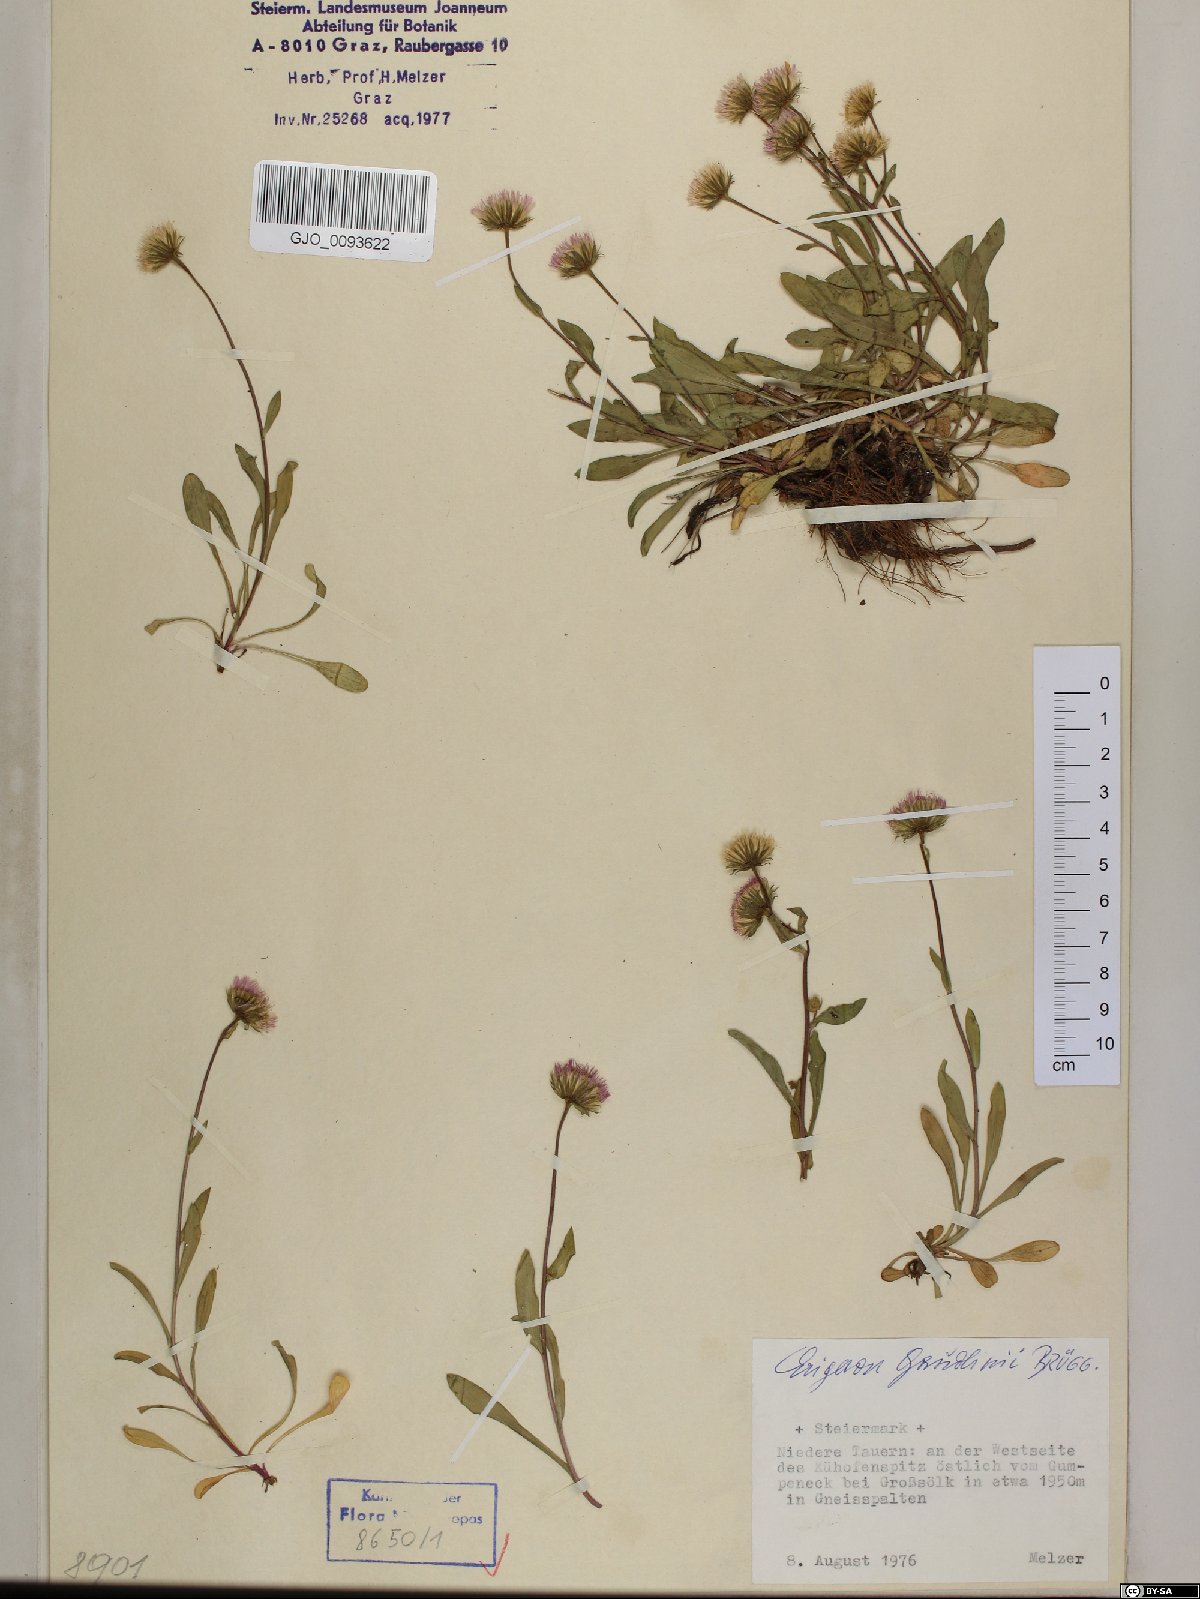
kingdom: Plantae
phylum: Tracheophyta
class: Magnoliopsida
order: Asterales
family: Asteraceae
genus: Erigeron
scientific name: Erigeron schleicheri
